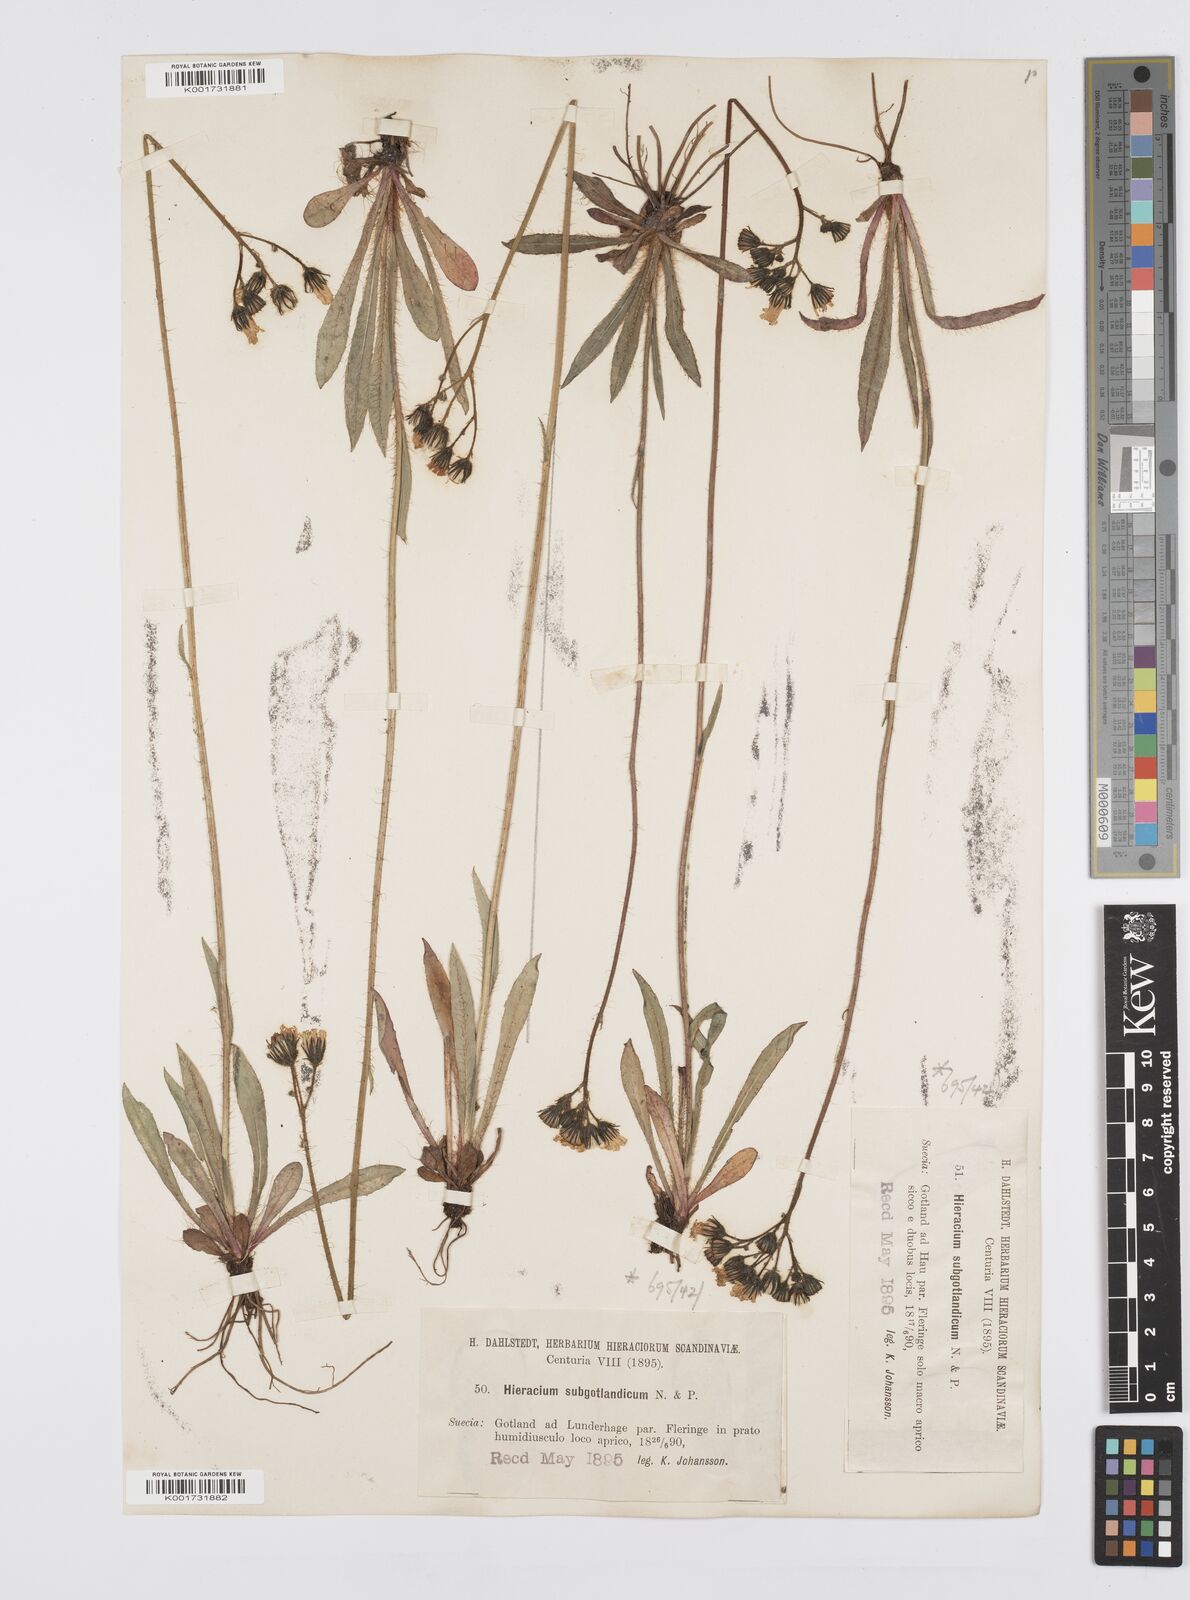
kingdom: Plantae
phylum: Tracheophyta
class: Magnoliopsida
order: Asterales
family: Asteraceae
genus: Pilosella
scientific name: Pilosella piloselloides
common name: Glaucous king-devil
